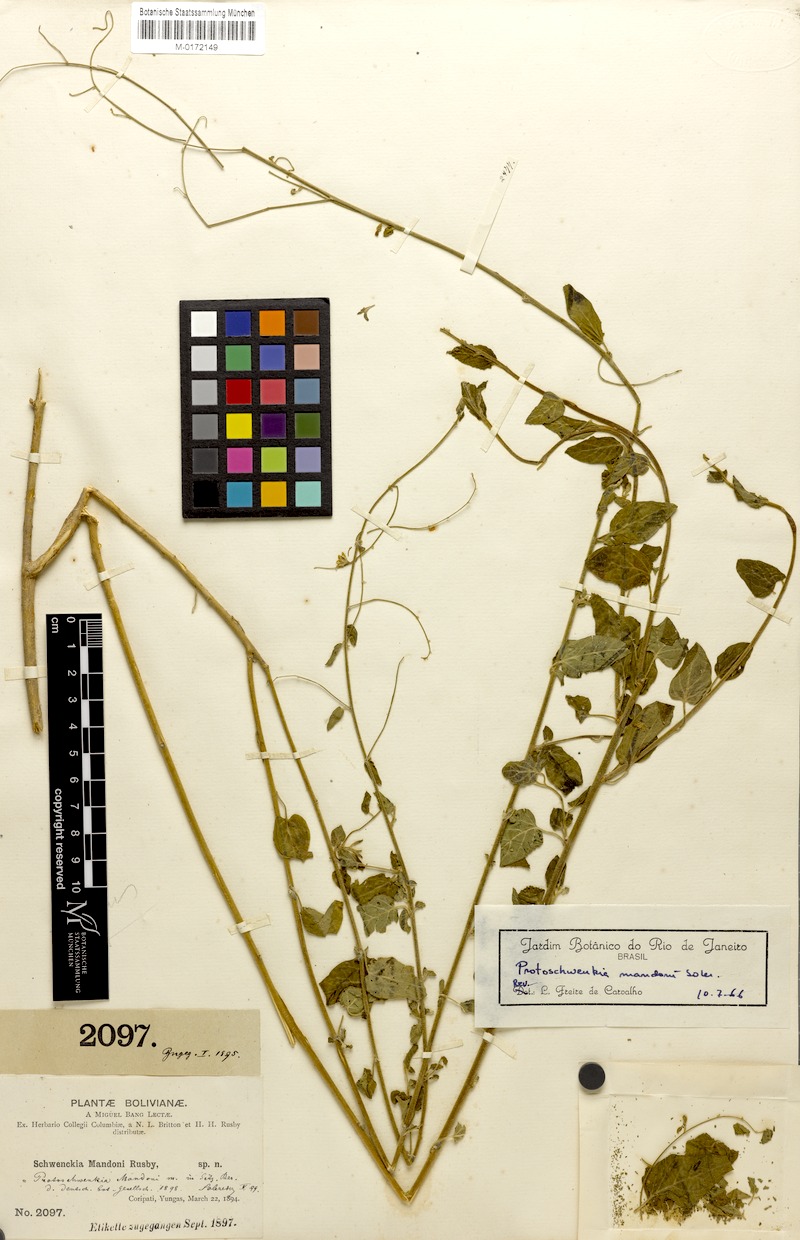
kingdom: Plantae
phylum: Tracheophyta
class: Magnoliopsida
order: Solanales
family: Solanaceae
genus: Protoschwenckia
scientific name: Protoschwenckia mandonii
